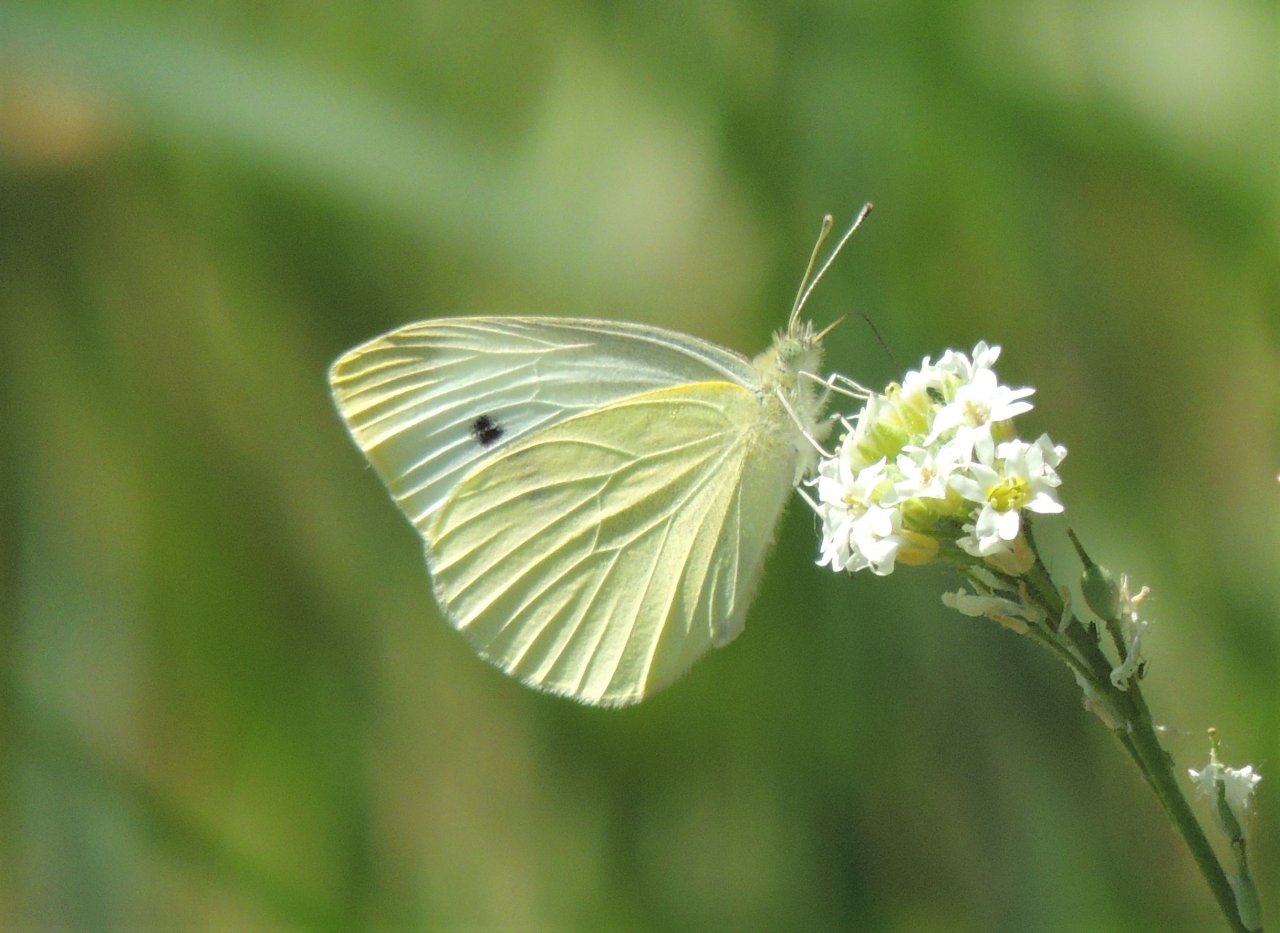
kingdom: Animalia
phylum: Arthropoda
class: Insecta
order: Lepidoptera
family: Pieridae
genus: Pieris
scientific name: Pieris rapae
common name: Cabbage White
